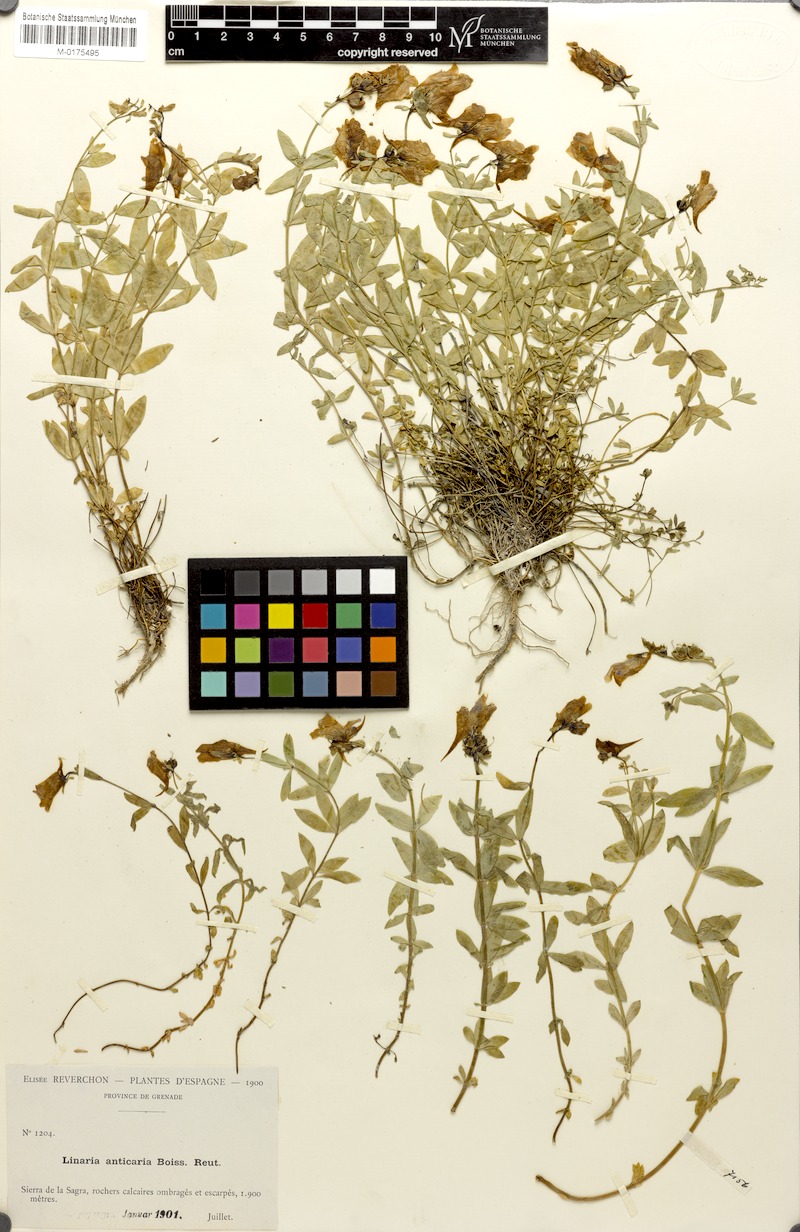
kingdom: Plantae
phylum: Tracheophyta
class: Magnoliopsida
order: Lamiales
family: Plantaginaceae
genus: Linaria
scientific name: Linaria verticillata
